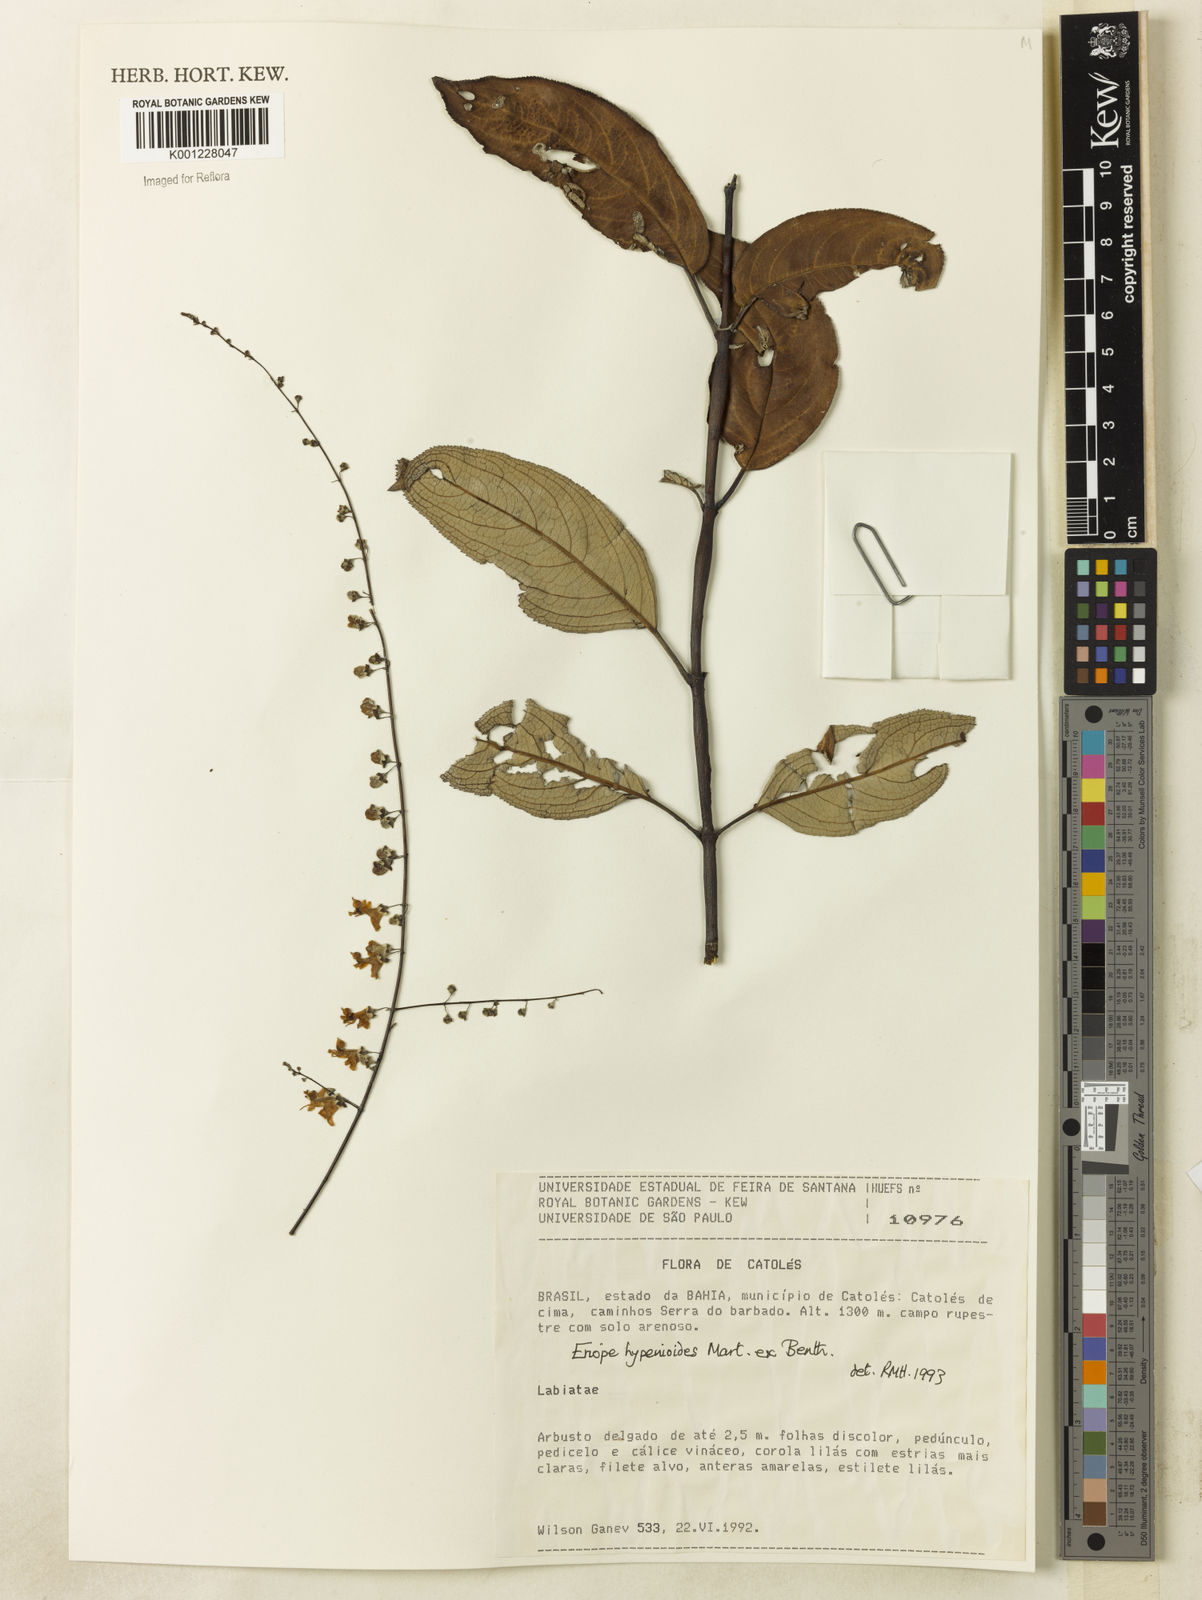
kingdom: Plantae
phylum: Tracheophyta
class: Magnoliopsida
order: Lamiales
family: Lamiaceae
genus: Eriope
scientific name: Eriope hypenioides
